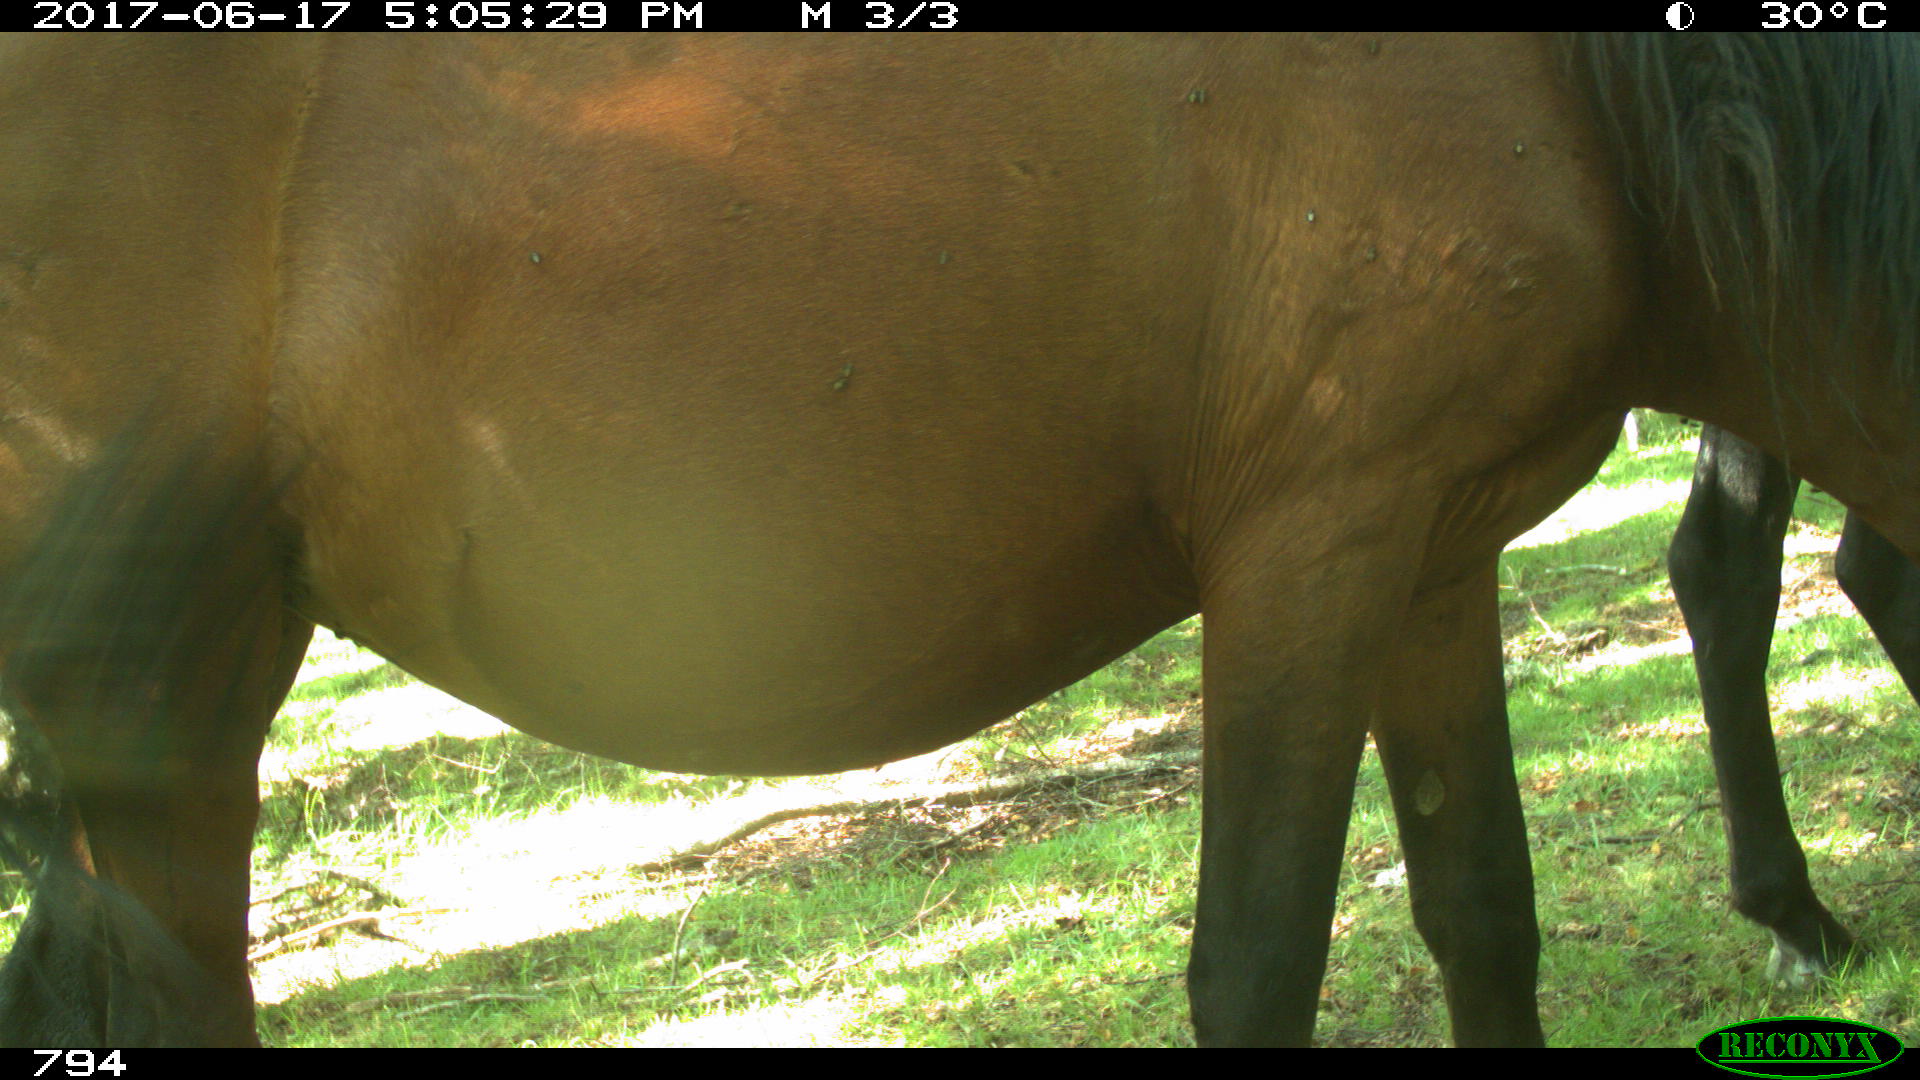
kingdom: Animalia
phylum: Chordata
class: Mammalia
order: Perissodactyla
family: Equidae
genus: Equus
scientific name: Equus caballus
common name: Horse
